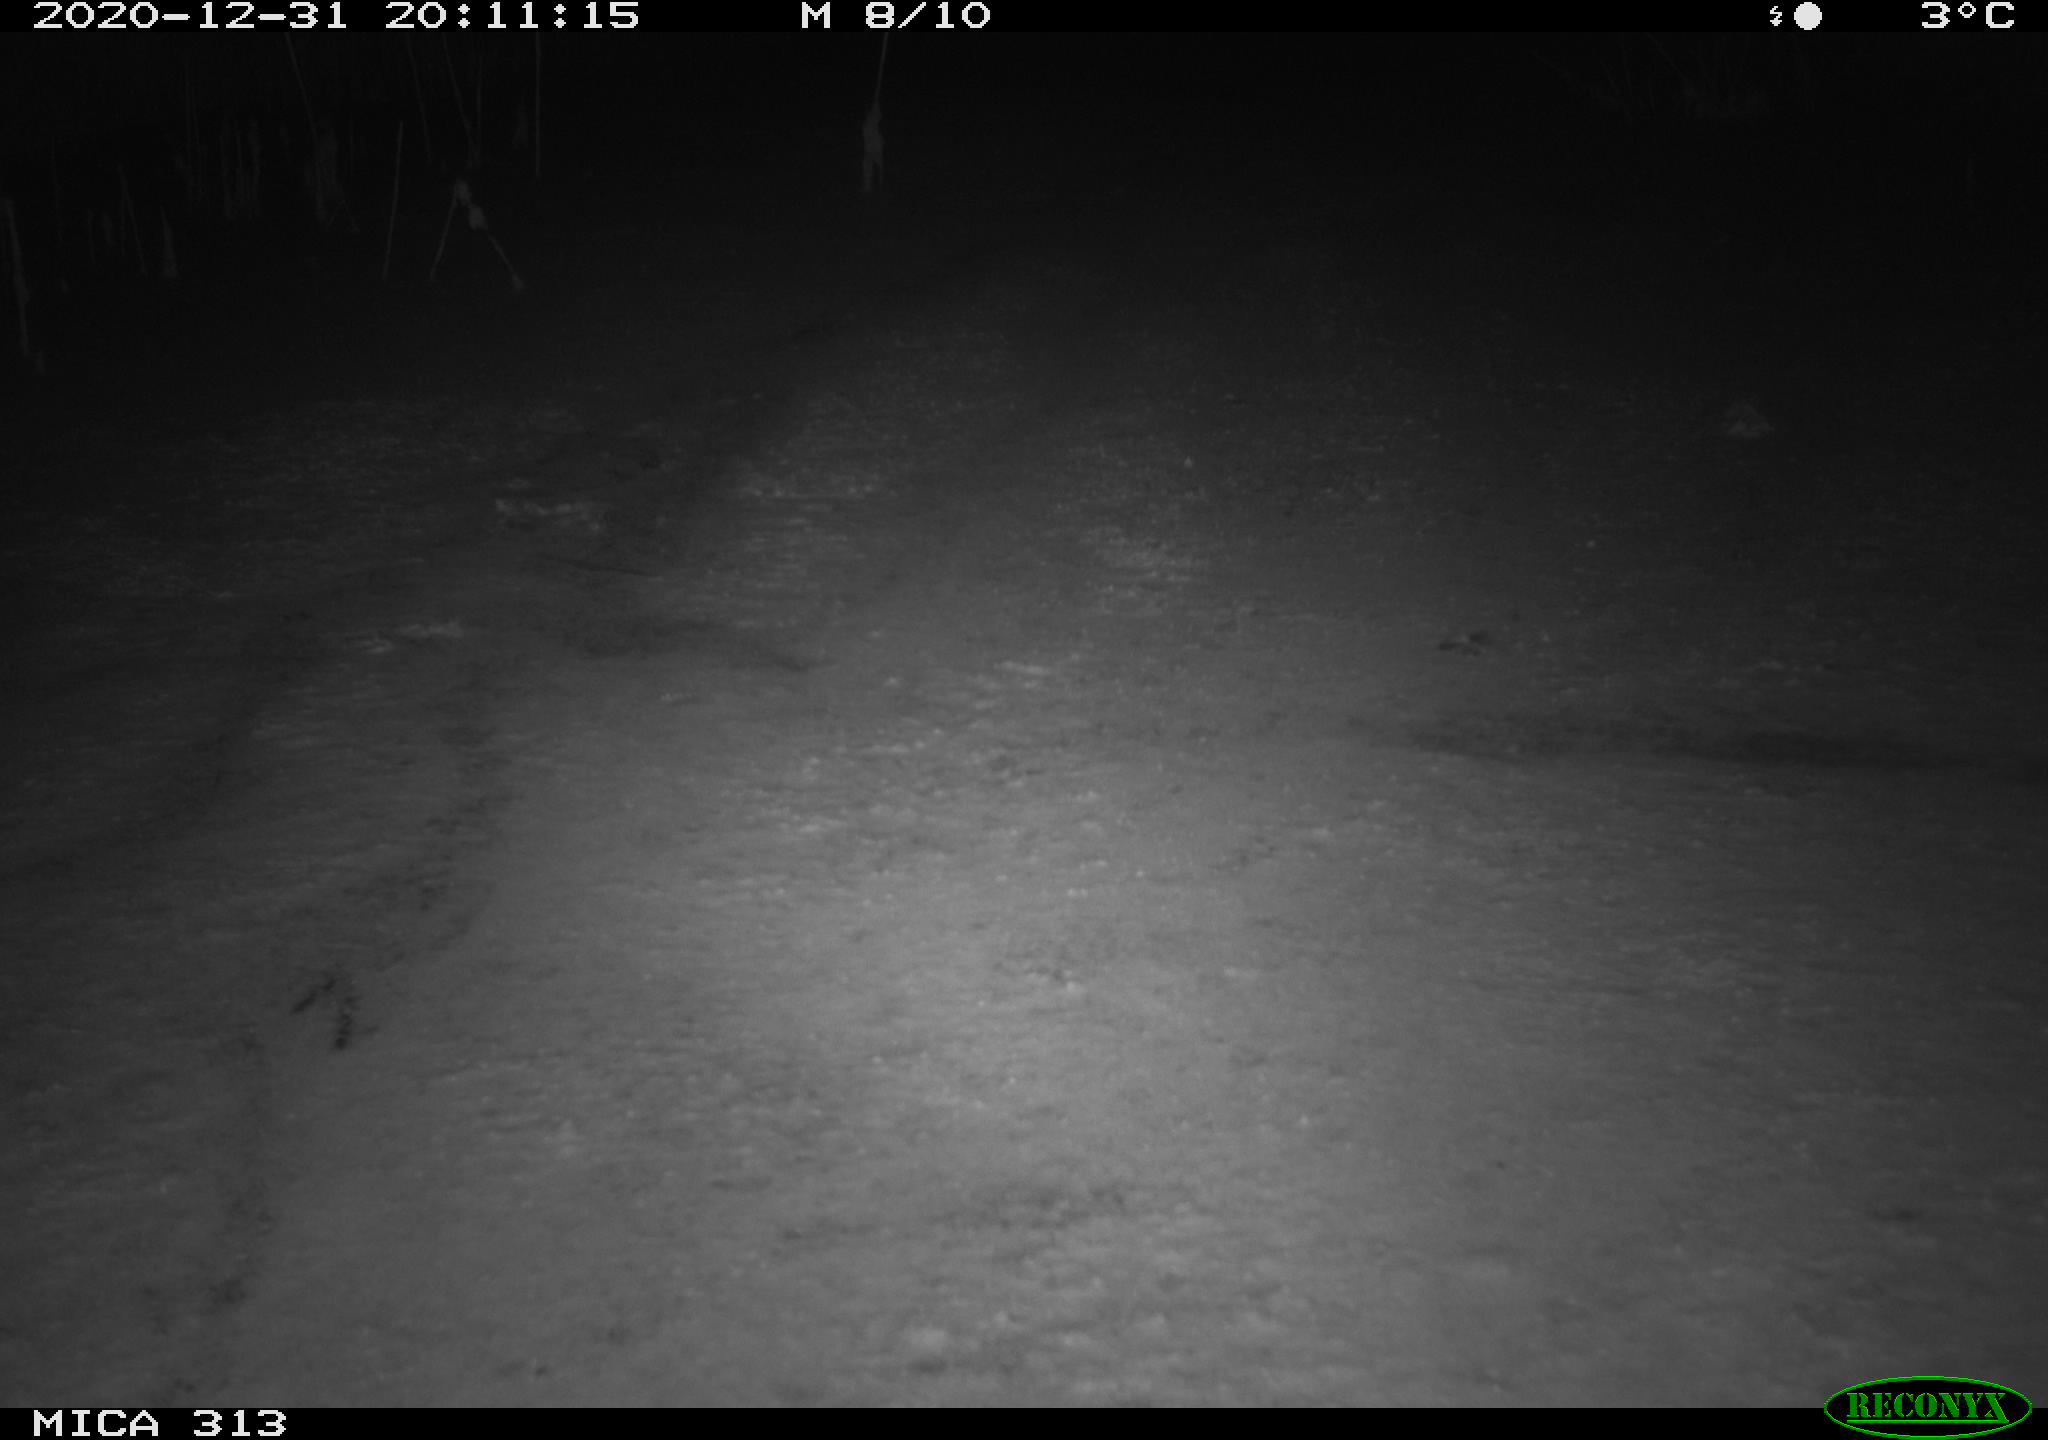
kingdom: Animalia
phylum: Chordata
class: Mammalia
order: Rodentia
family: Cricetidae
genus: Ondatra
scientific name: Ondatra zibethicus
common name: Muskrat
